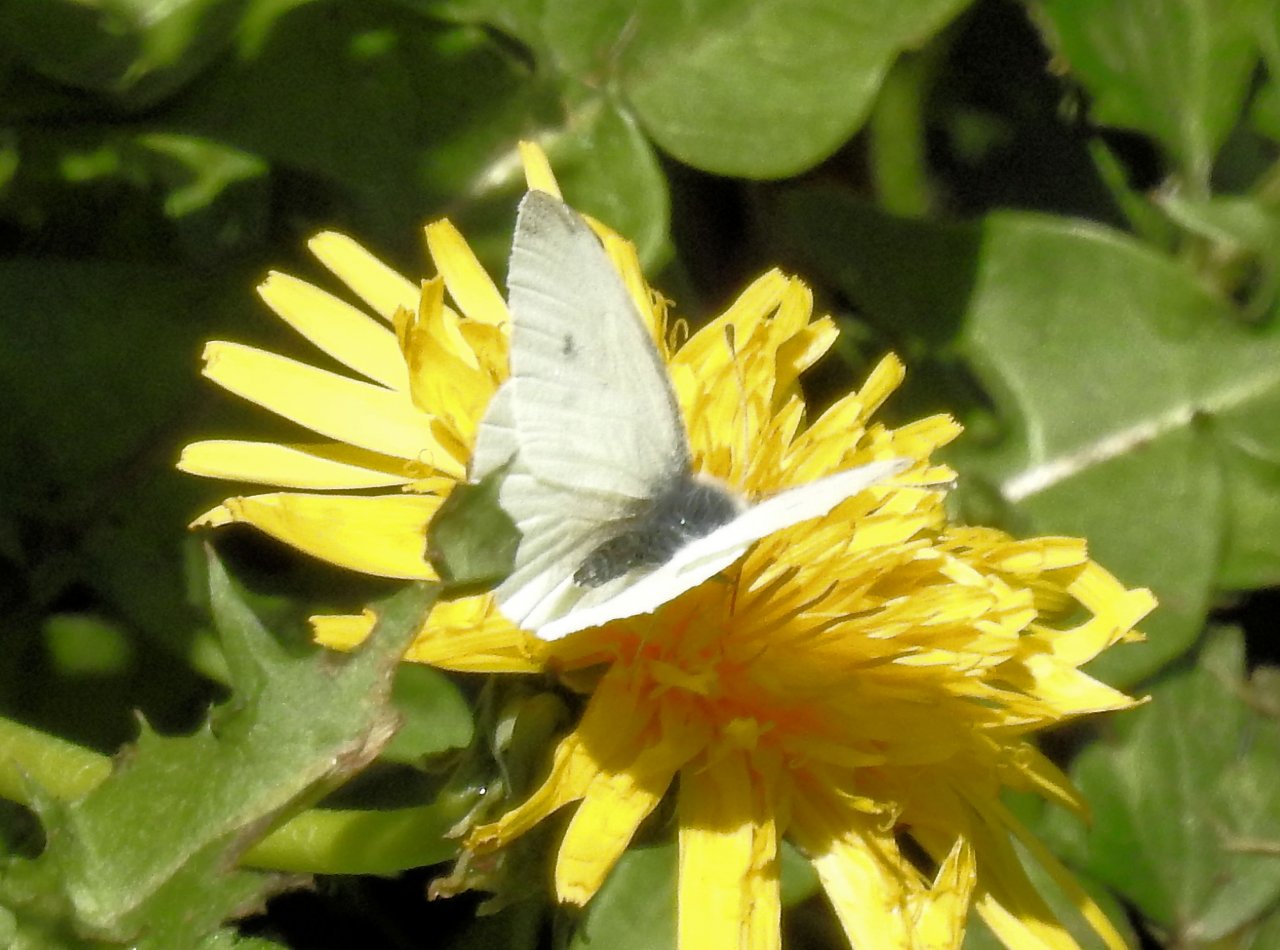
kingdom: Animalia
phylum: Arthropoda
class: Insecta
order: Lepidoptera
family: Pieridae
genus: Pieris
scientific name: Pieris rapae
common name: Cabbage White
